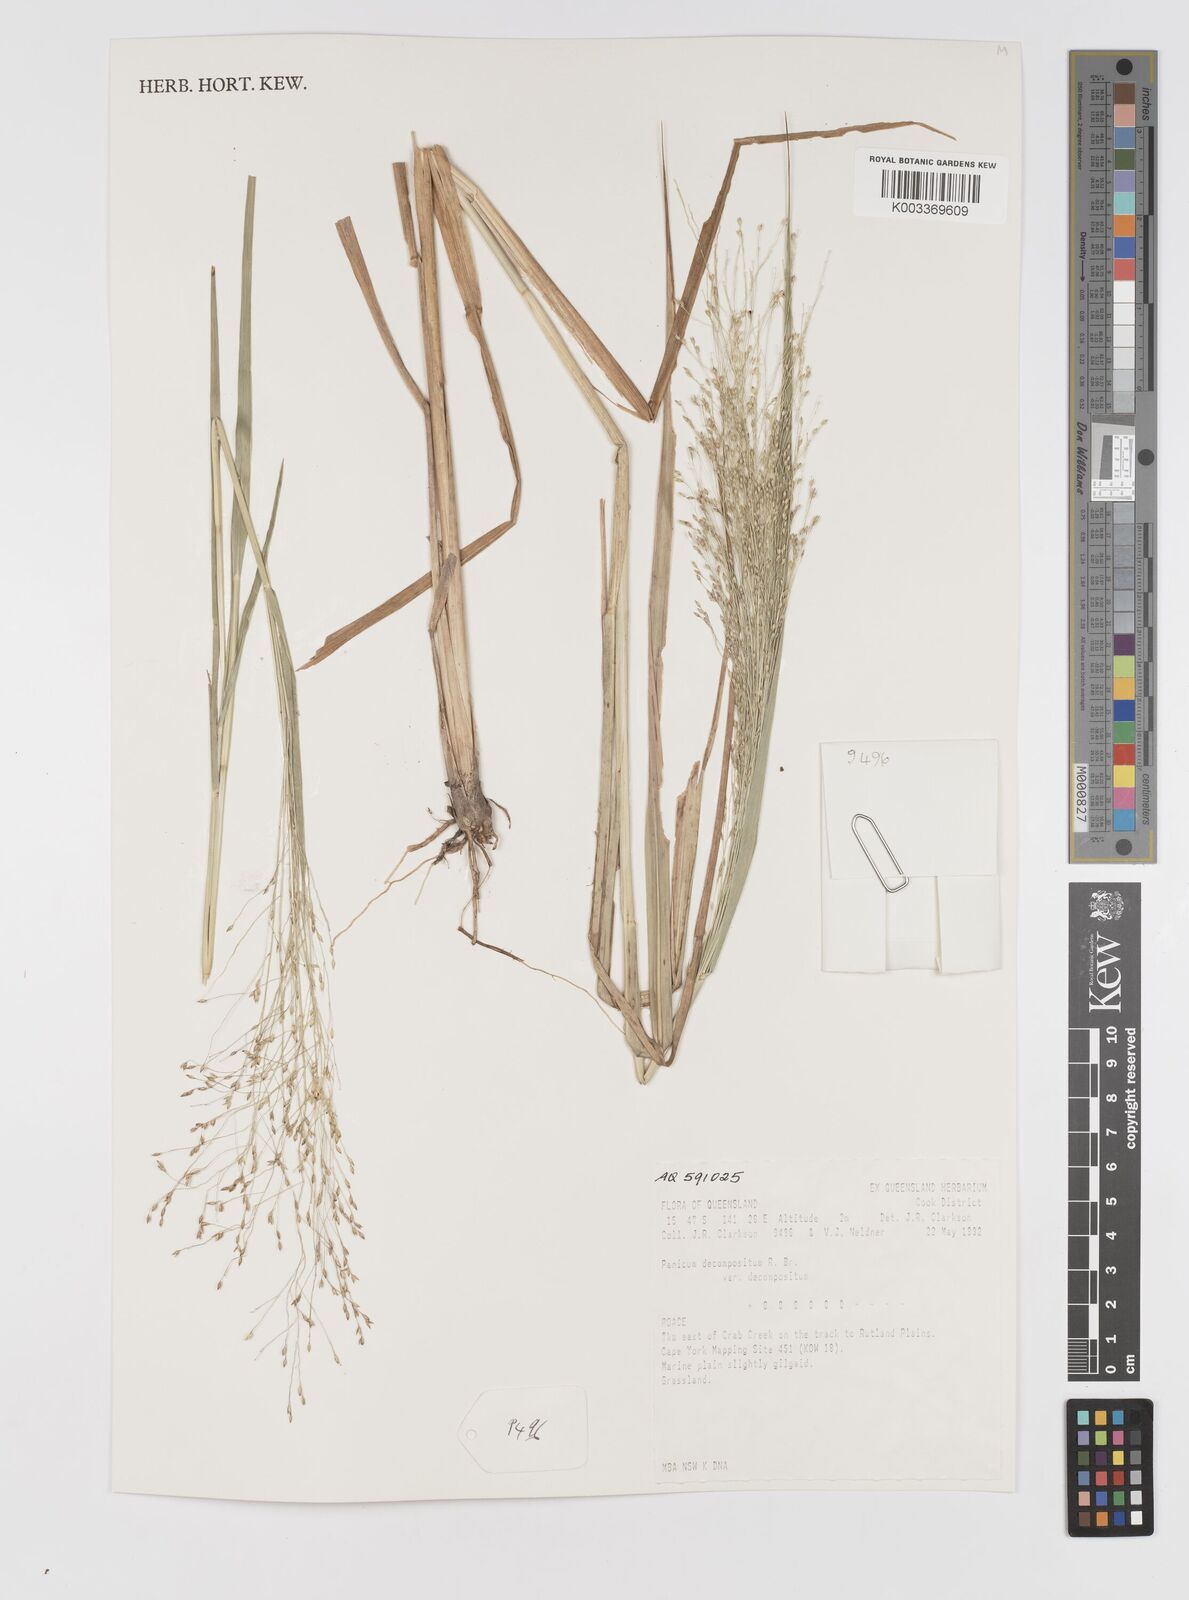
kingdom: Plantae
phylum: Tracheophyta
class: Liliopsida
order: Poales
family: Poaceae
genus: Panicum
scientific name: Panicum decompositum
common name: Australian millet
